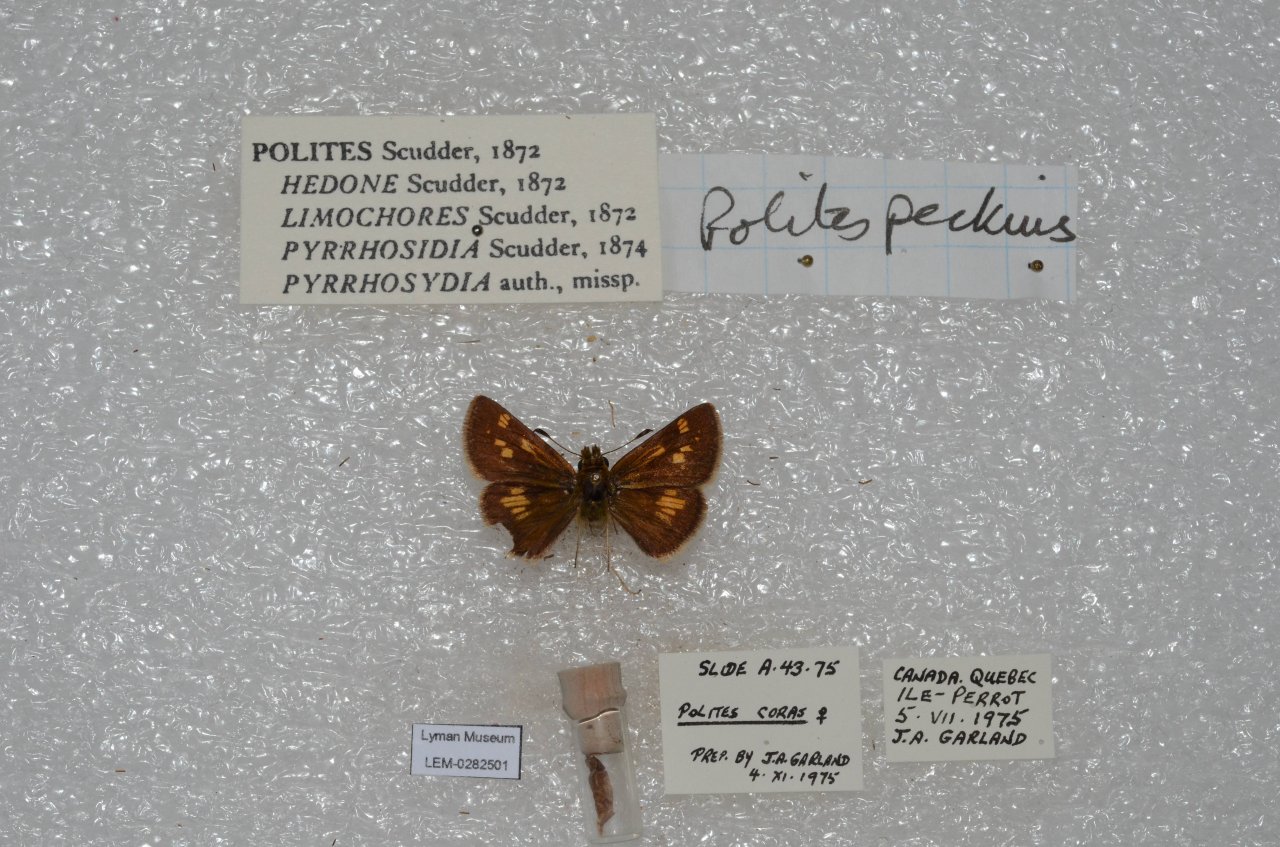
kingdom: Animalia
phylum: Arthropoda
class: Insecta
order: Lepidoptera
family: Hesperiidae
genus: Polites
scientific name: Polites coras
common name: Peck's Skipper
